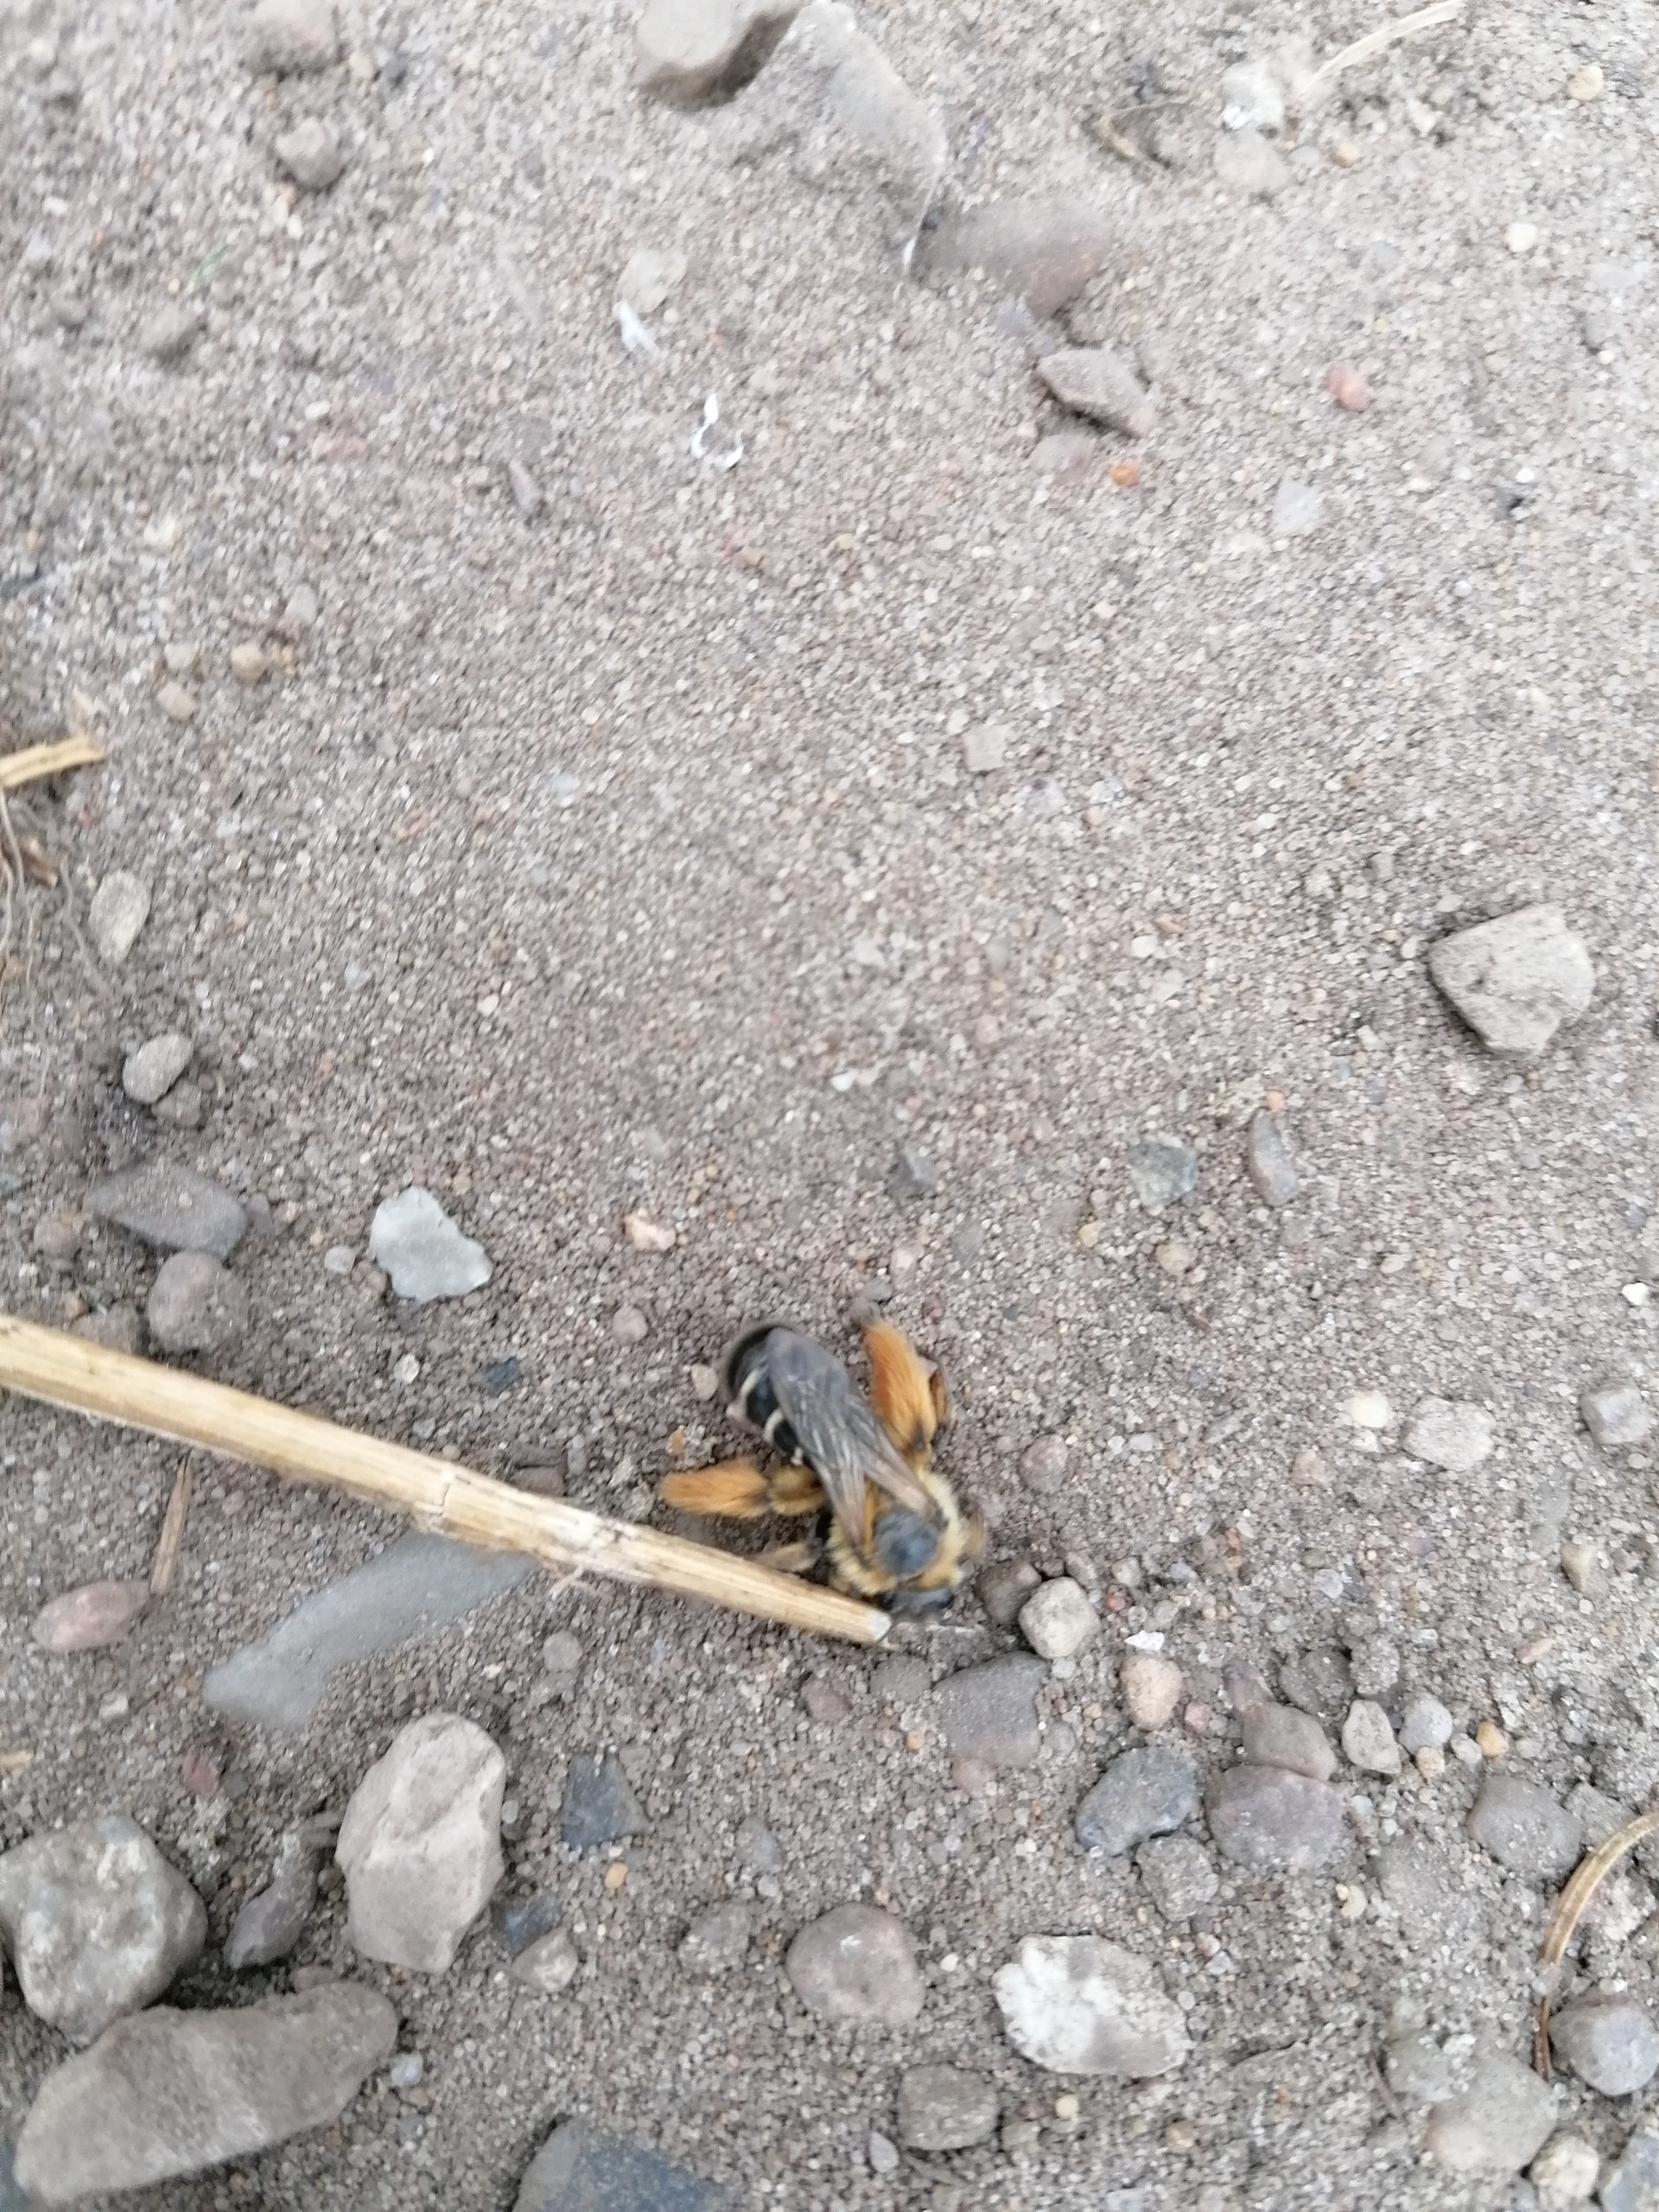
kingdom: Animalia
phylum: Arthropoda
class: Insecta
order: Hymenoptera
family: Melittidae
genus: Dasypoda
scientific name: Dasypoda hirtipes
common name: Pragtbuksebi
